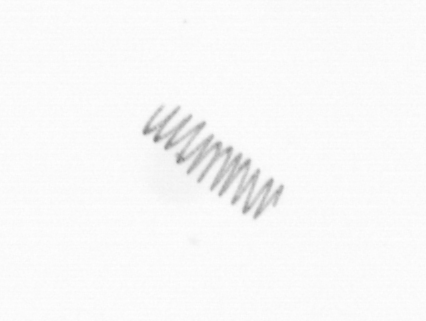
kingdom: Chromista
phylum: Ochrophyta
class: Bacillariophyceae
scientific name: Bacillariophyceae
